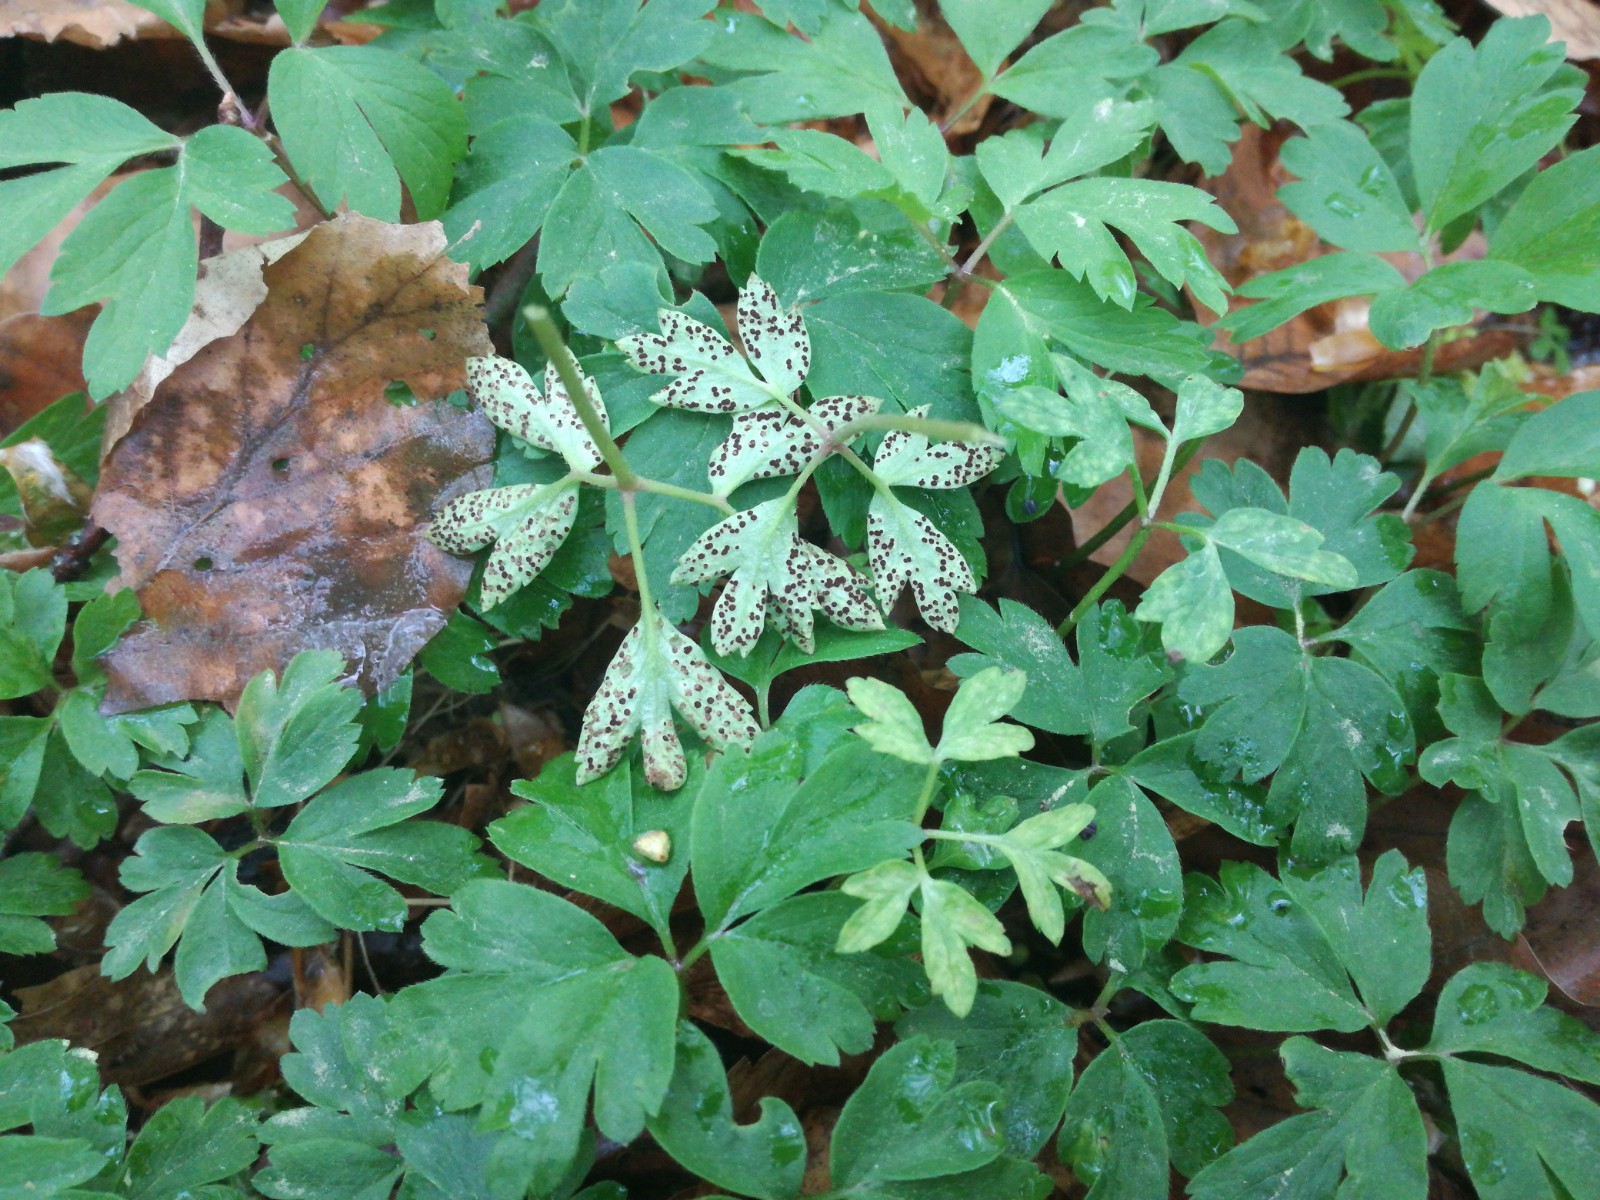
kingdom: Fungi
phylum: Basidiomycota
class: Pucciniomycetes
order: Pucciniales
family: Tranzscheliaceae
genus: Tranzschelia
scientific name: Tranzschelia anemones
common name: anemone-knæksporerust
